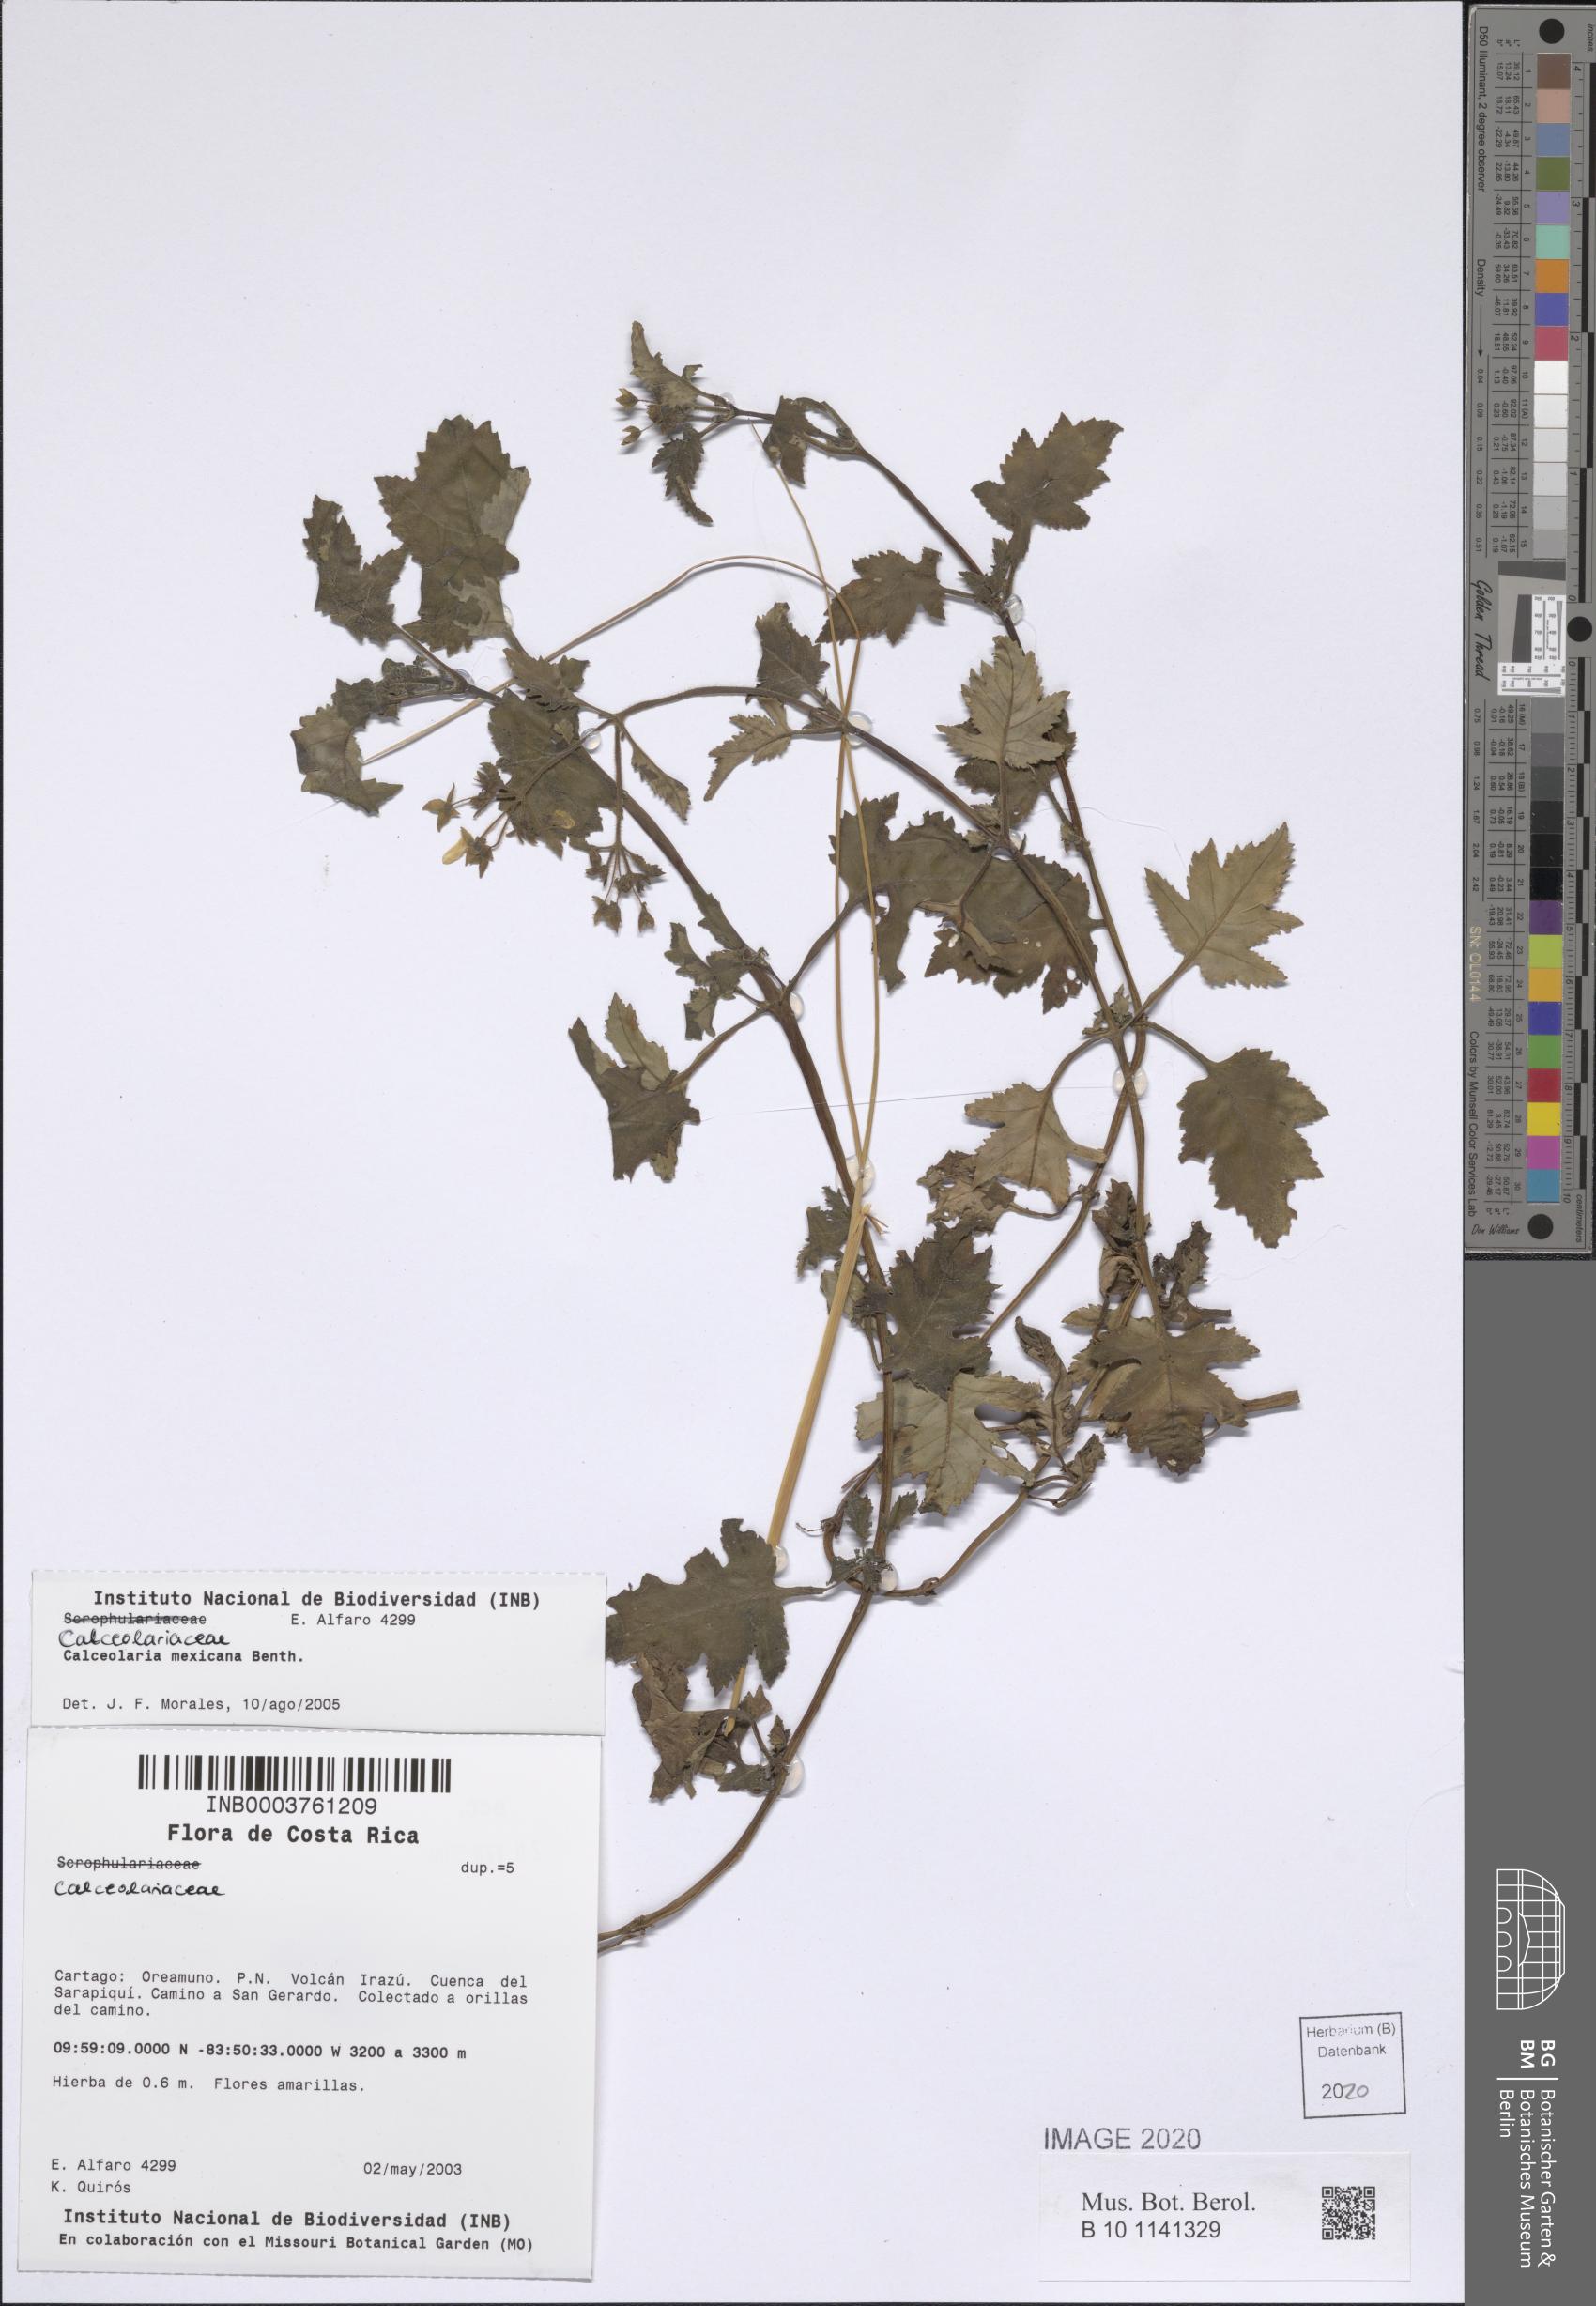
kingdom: Plantae
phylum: Tracheophyta
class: Magnoliopsida
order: Lamiales
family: Calceolariaceae
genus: Calceolaria
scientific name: Calceolaria mexicana
